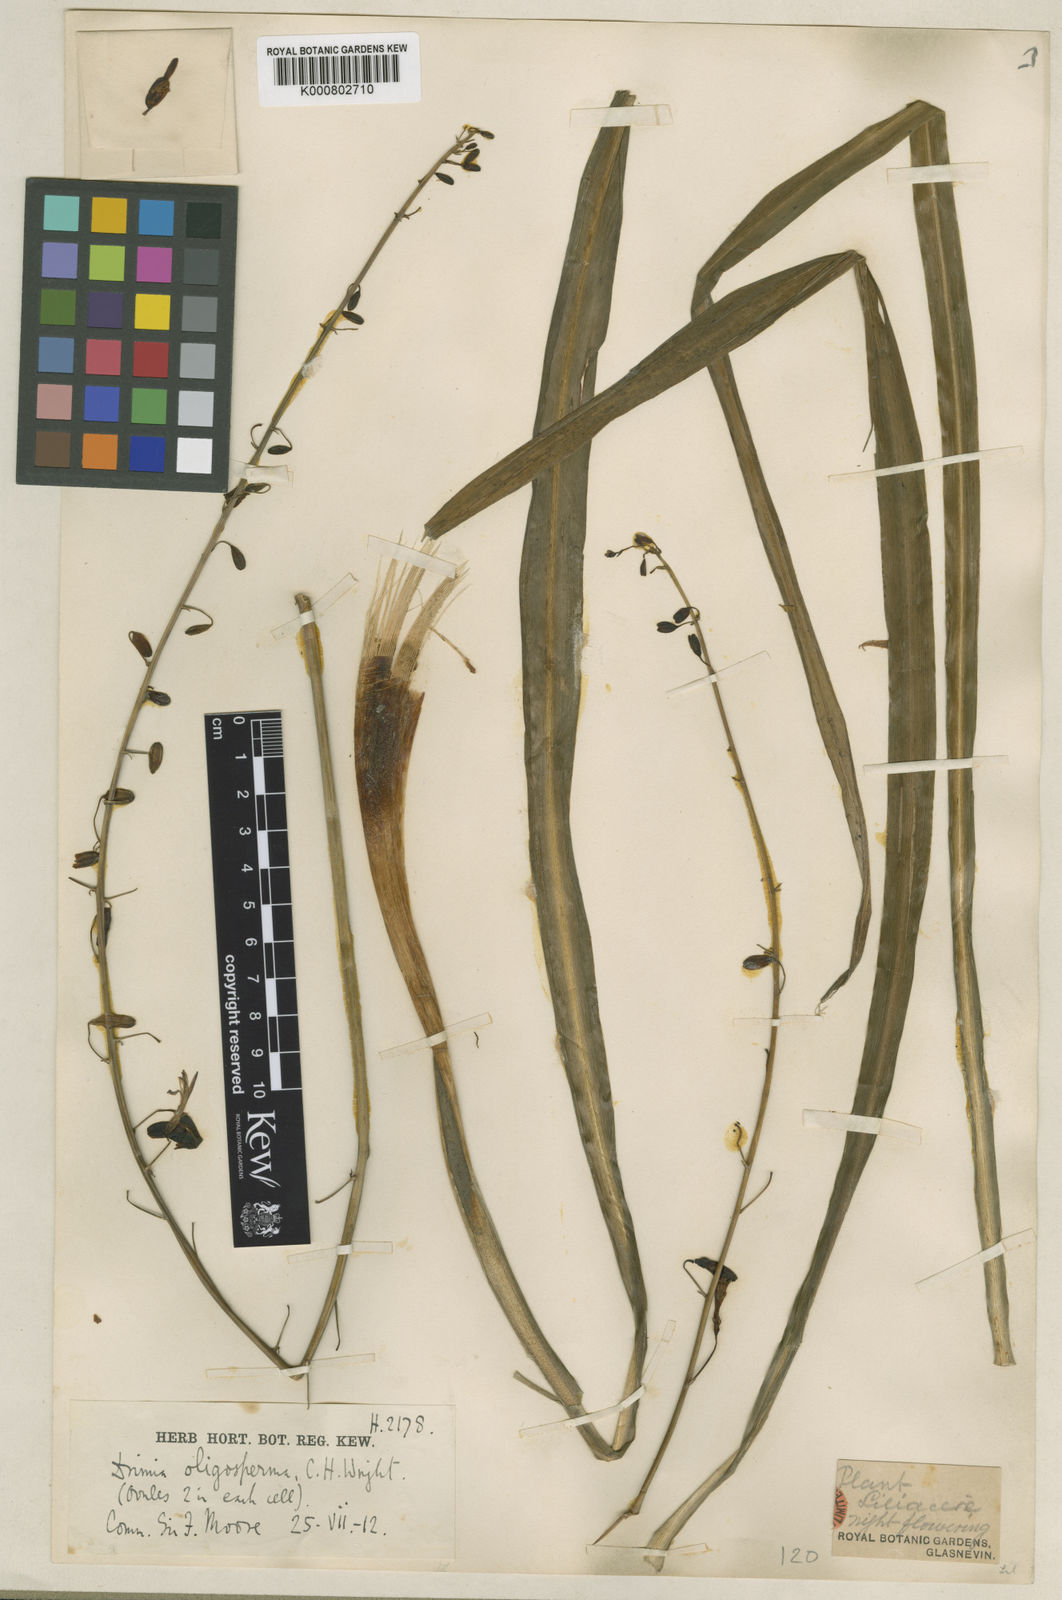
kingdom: Plantae
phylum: Tracheophyta
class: Liliopsida
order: Asparagales
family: Asparagaceae
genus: Chlorogalum
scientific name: Chlorogalum
